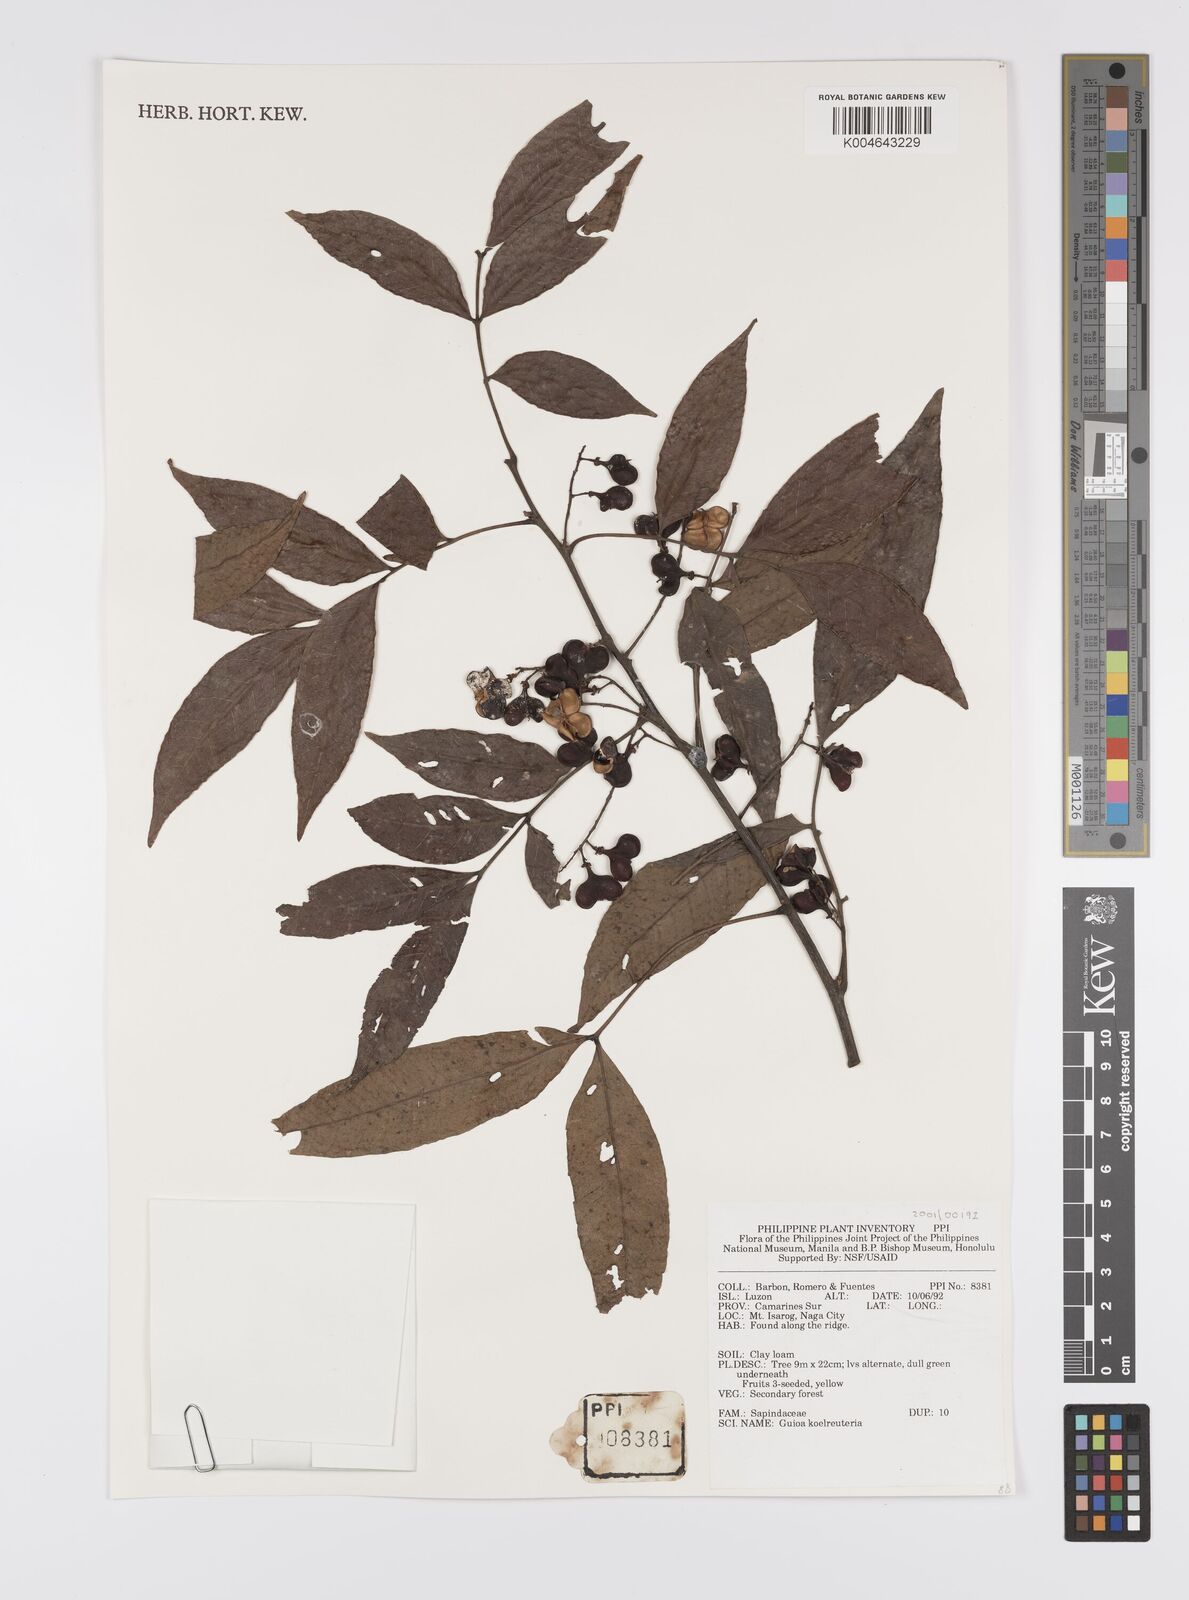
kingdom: Plantae
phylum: Tracheophyta
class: Magnoliopsida
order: Sapindales
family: Sapindaceae
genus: Guioa
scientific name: Guioa koelreuteria
